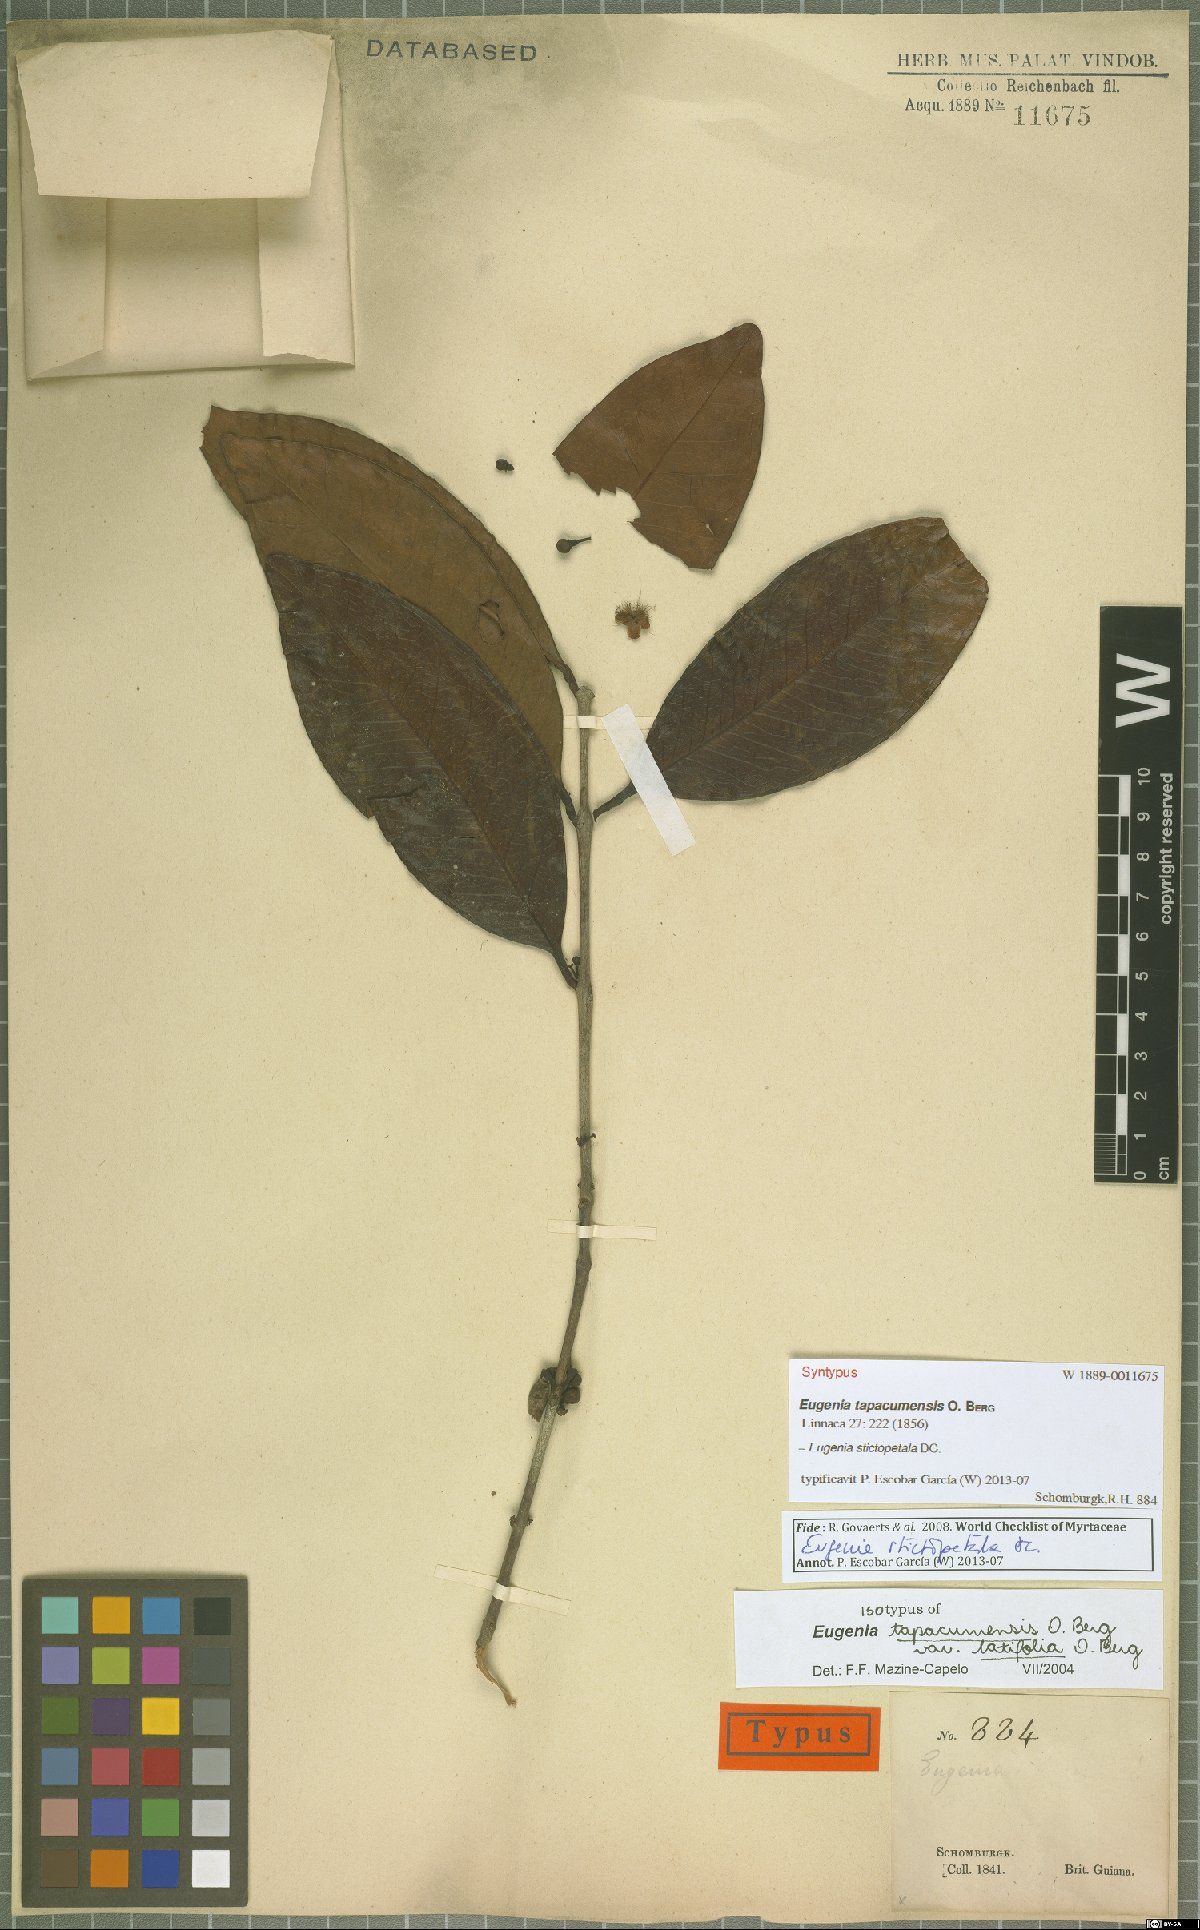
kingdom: Plantae
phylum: Tracheophyta
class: Magnoliopsida
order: Myrtales
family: Myrtaceae
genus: Eugenia
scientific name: Eugenia stictopetala
